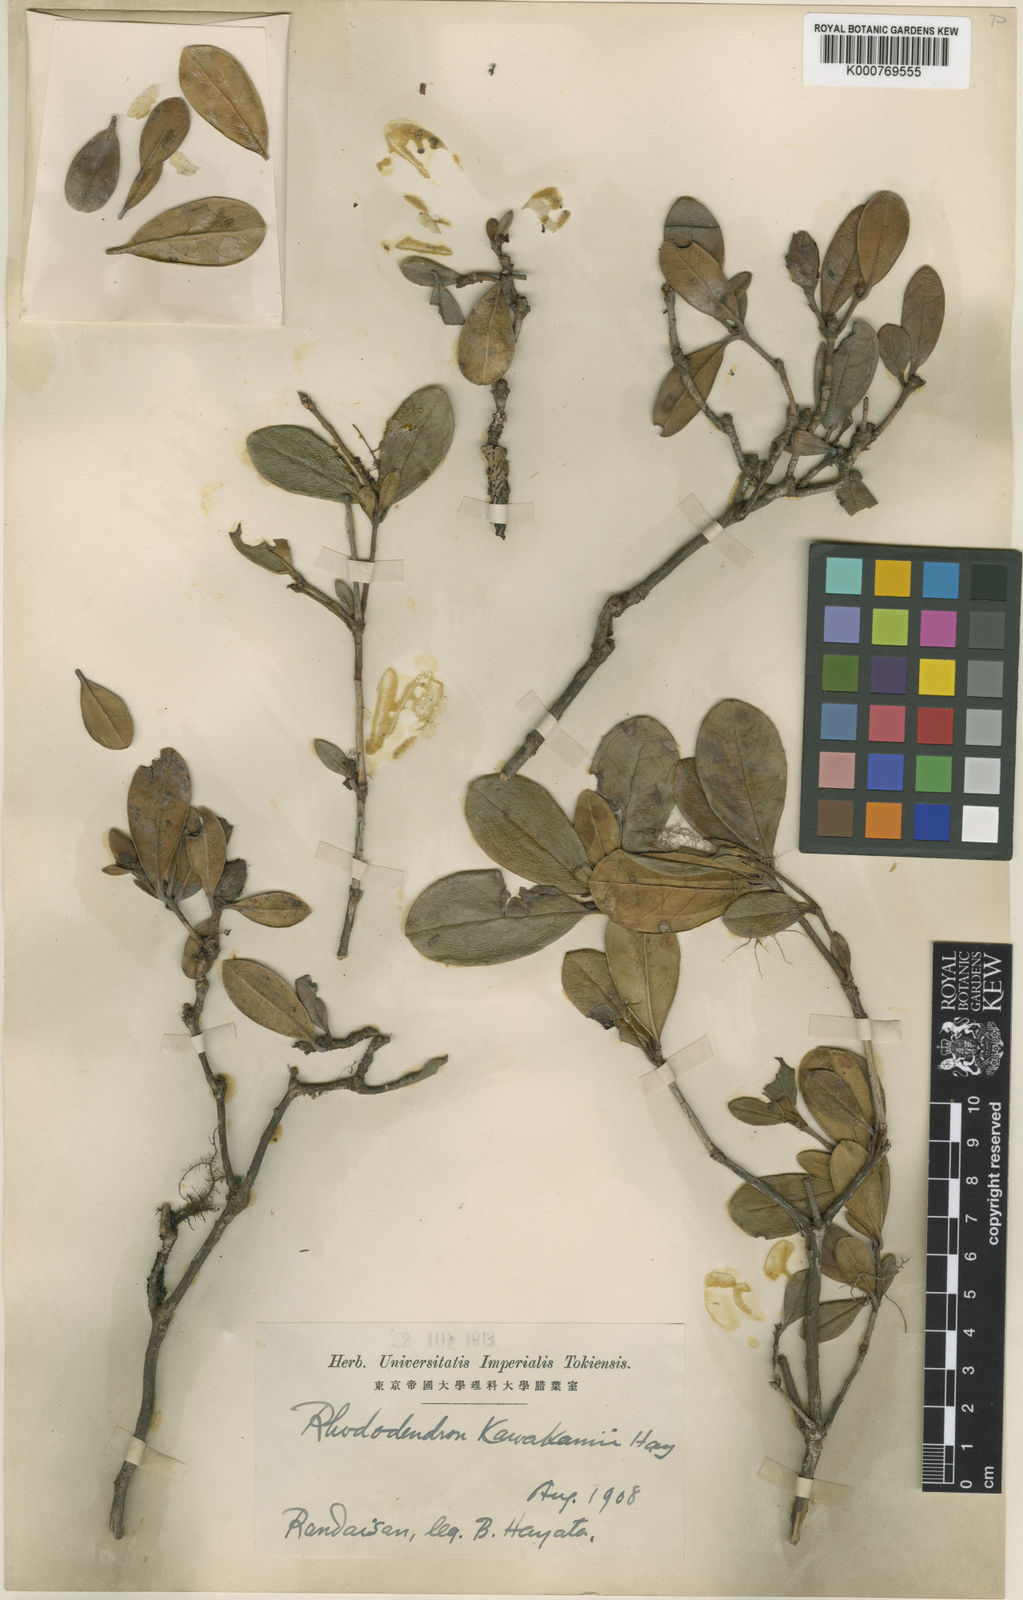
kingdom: Plantae
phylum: Tracheophyta
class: Magnoliopsida
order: Ericales
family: Ericaceae
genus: Rhododendron
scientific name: Rhododendron kawakamii
